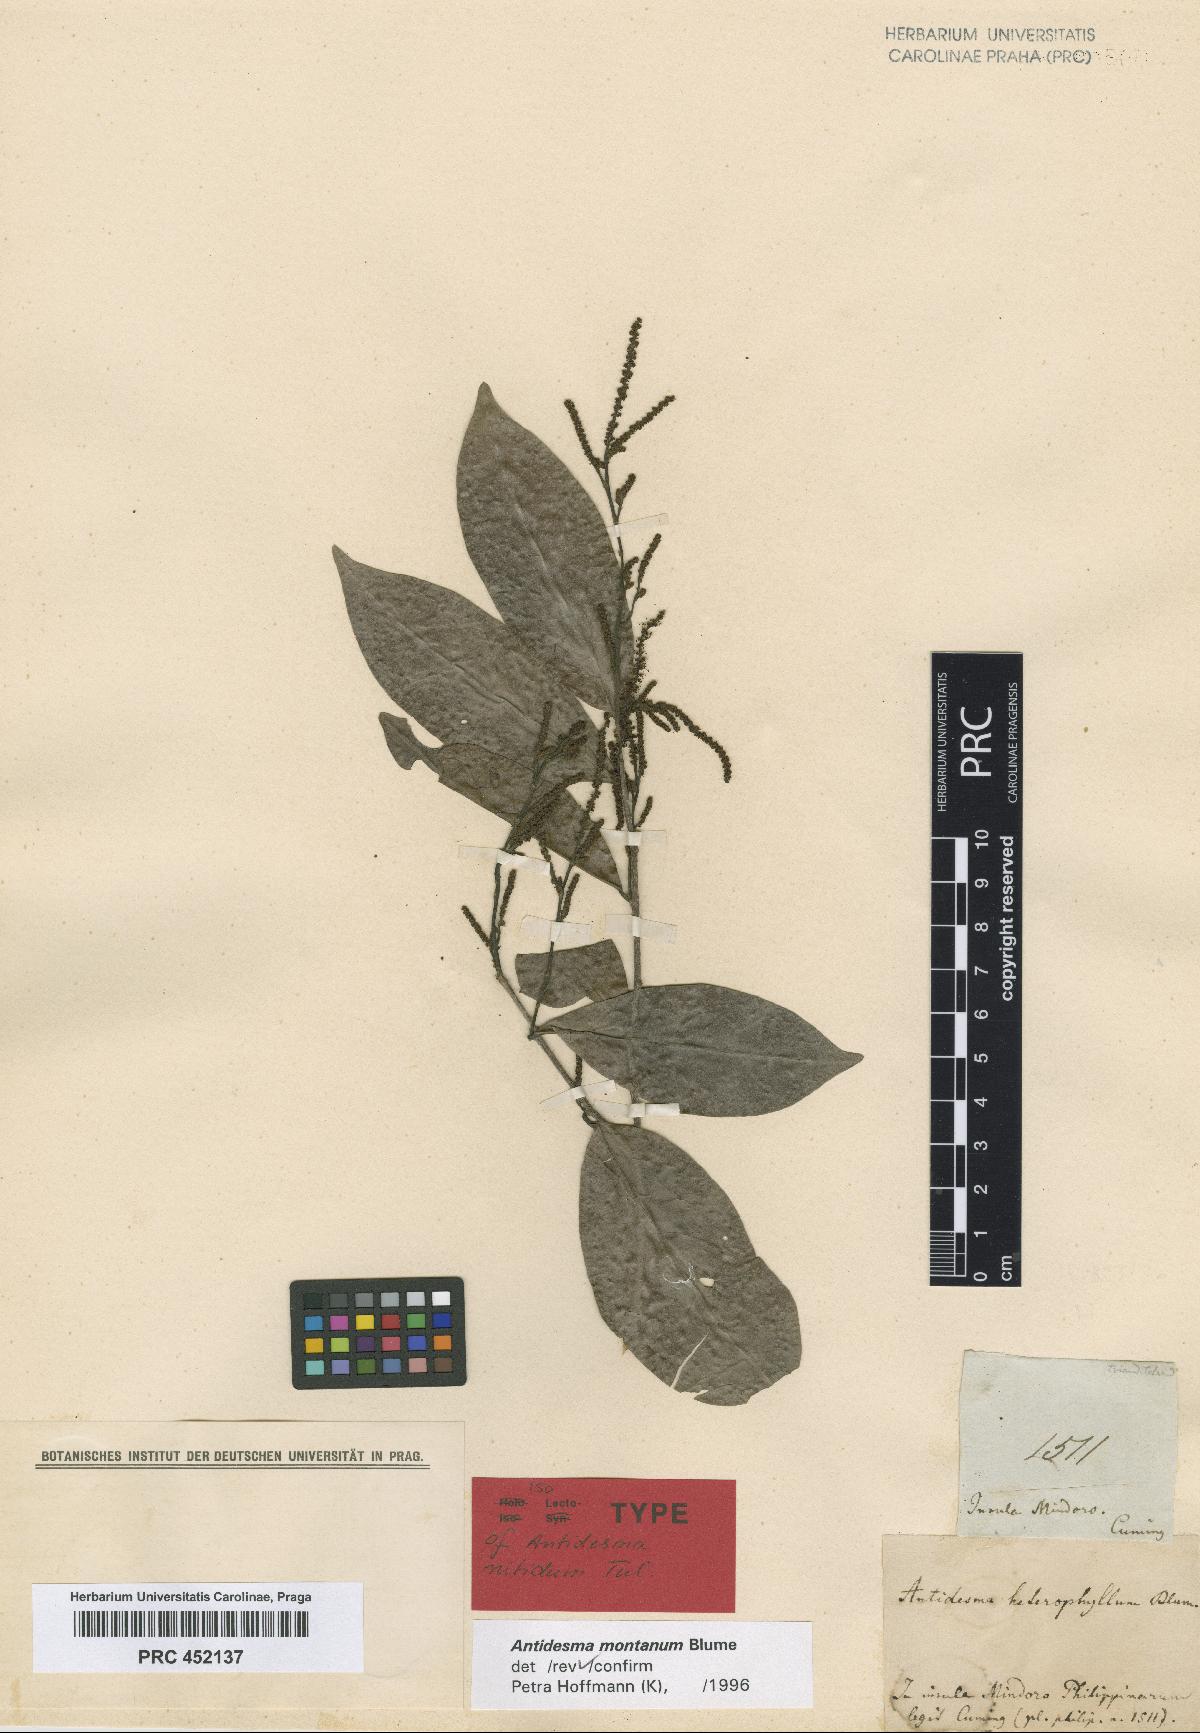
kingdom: Plantae
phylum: Tracheophyta
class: Magnoliopsida
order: Malpighiales
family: Phyllanthaceae
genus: Antidesma
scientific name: Antidesma montanum
